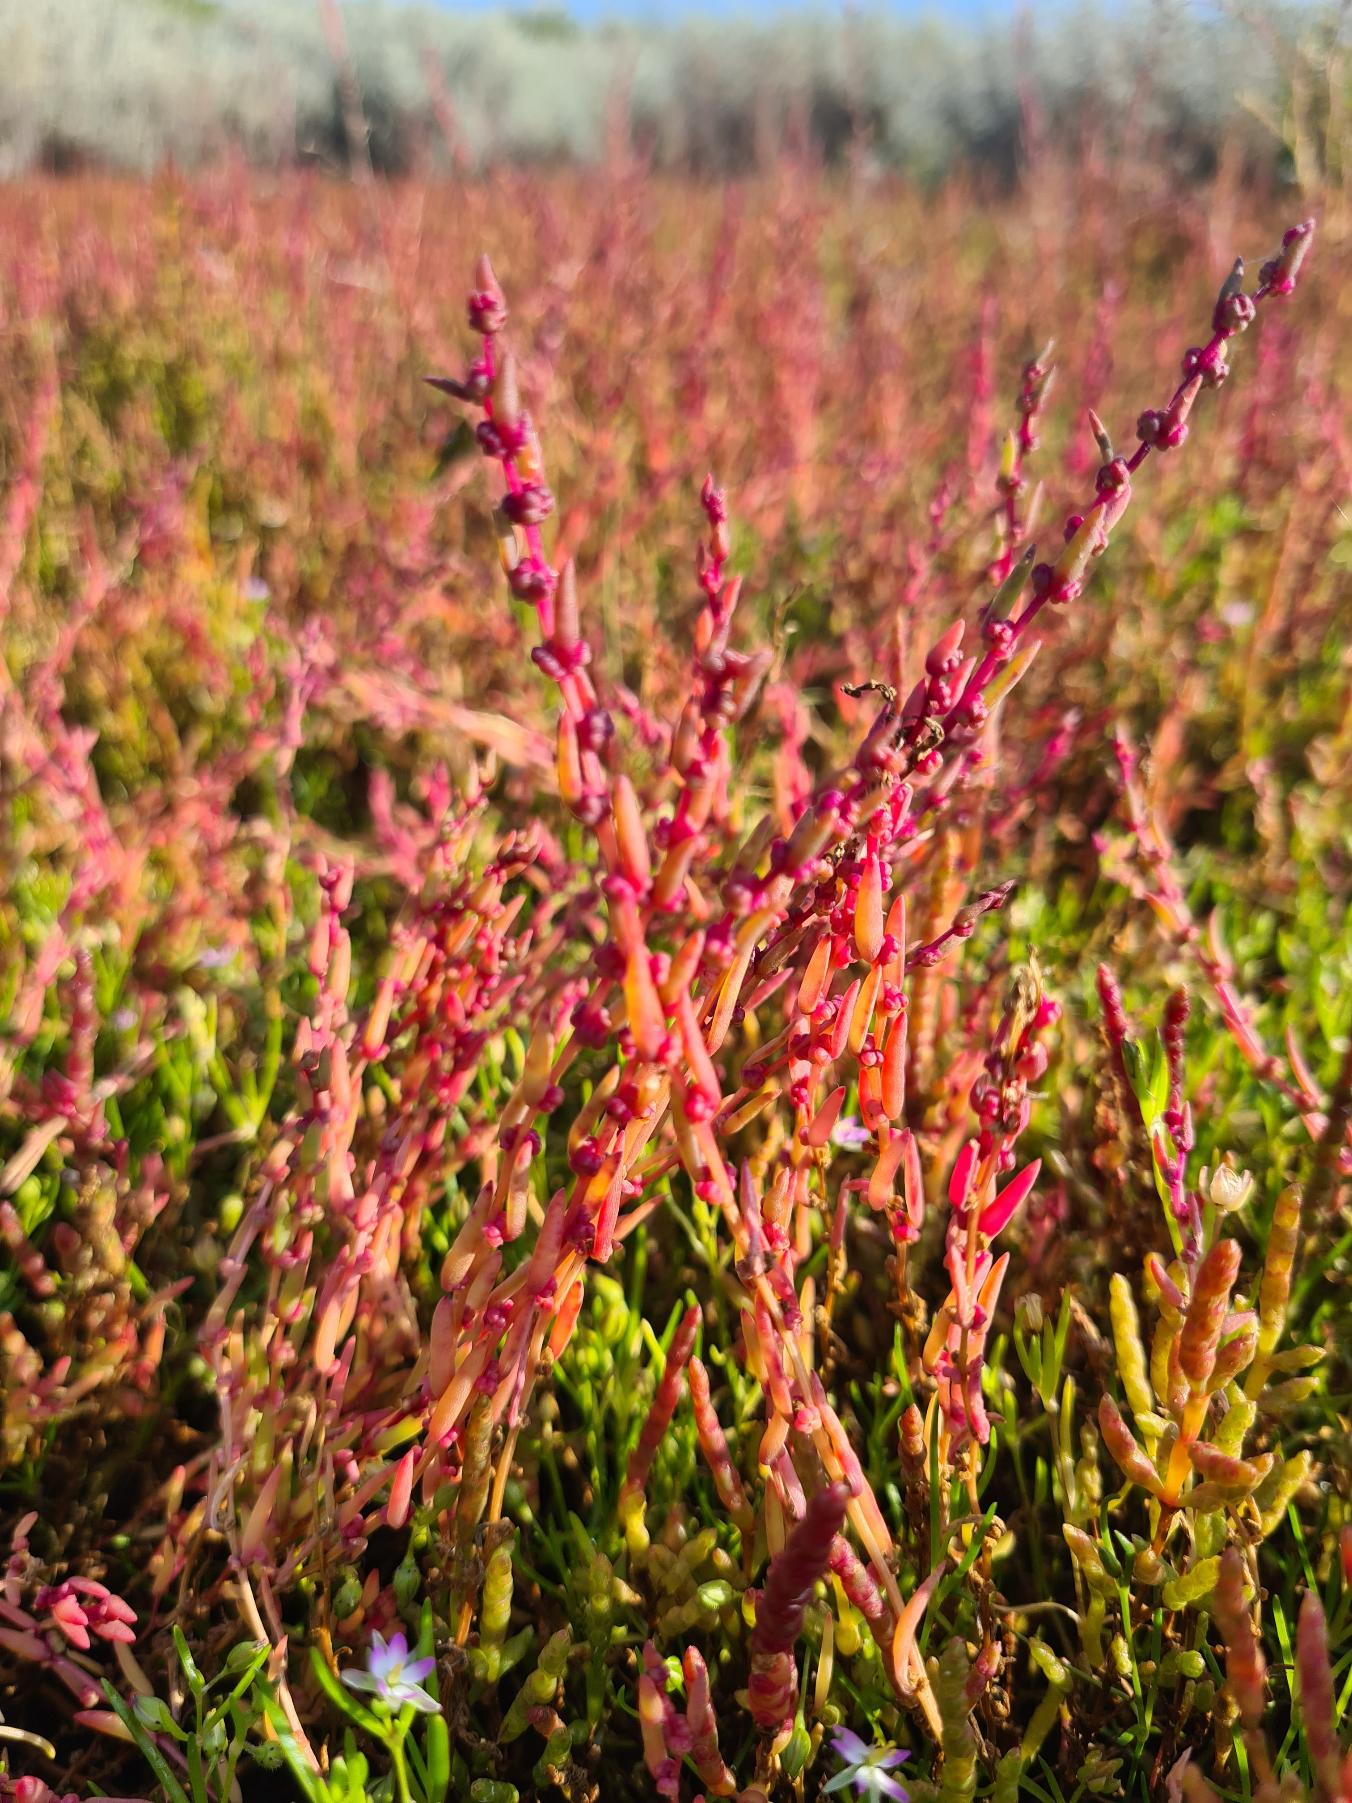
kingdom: Plantae
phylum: Tracheophyta
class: Magnoliopsida
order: Caryophyllales
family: Amaranthaceae
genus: Suaeda
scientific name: Suaeda maritima
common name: Strandgåsefod
